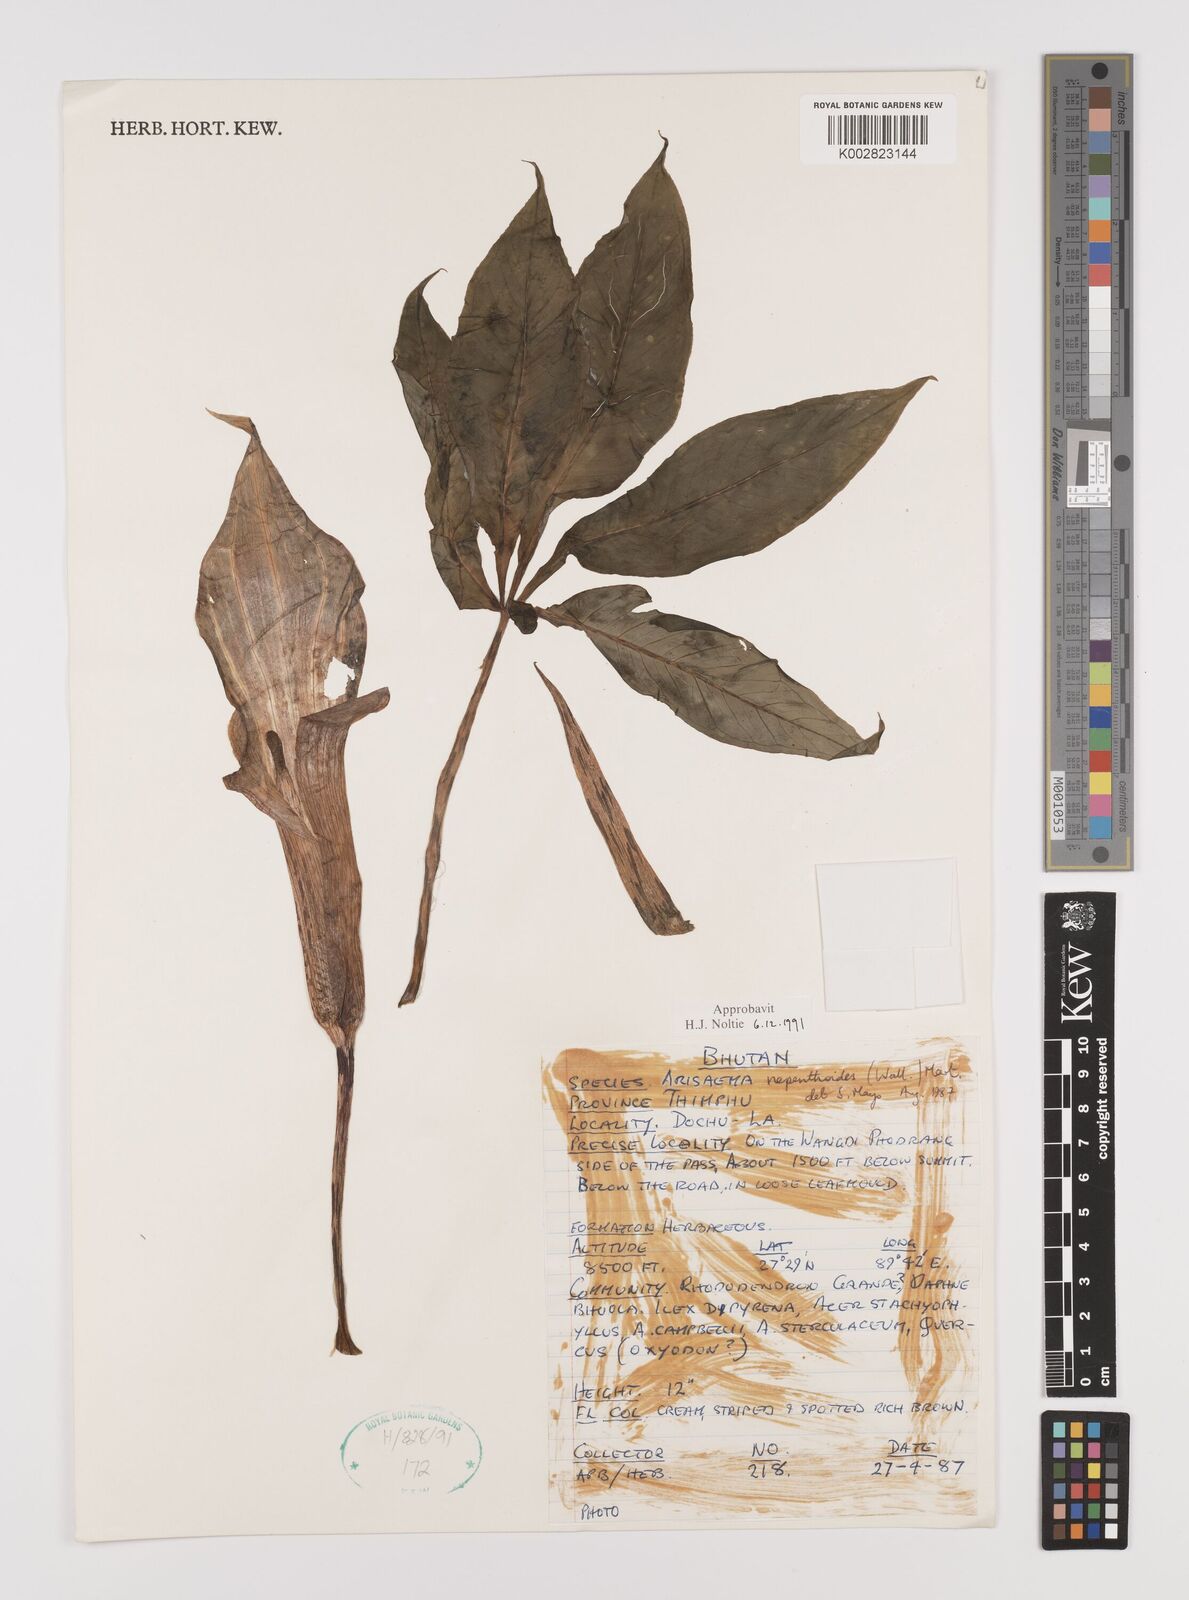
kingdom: Plantae
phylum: Tracheophyta
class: Liliopsida
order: Alismatales
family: Araceae
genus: Arisaema
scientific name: Arisaema nepenthoides
